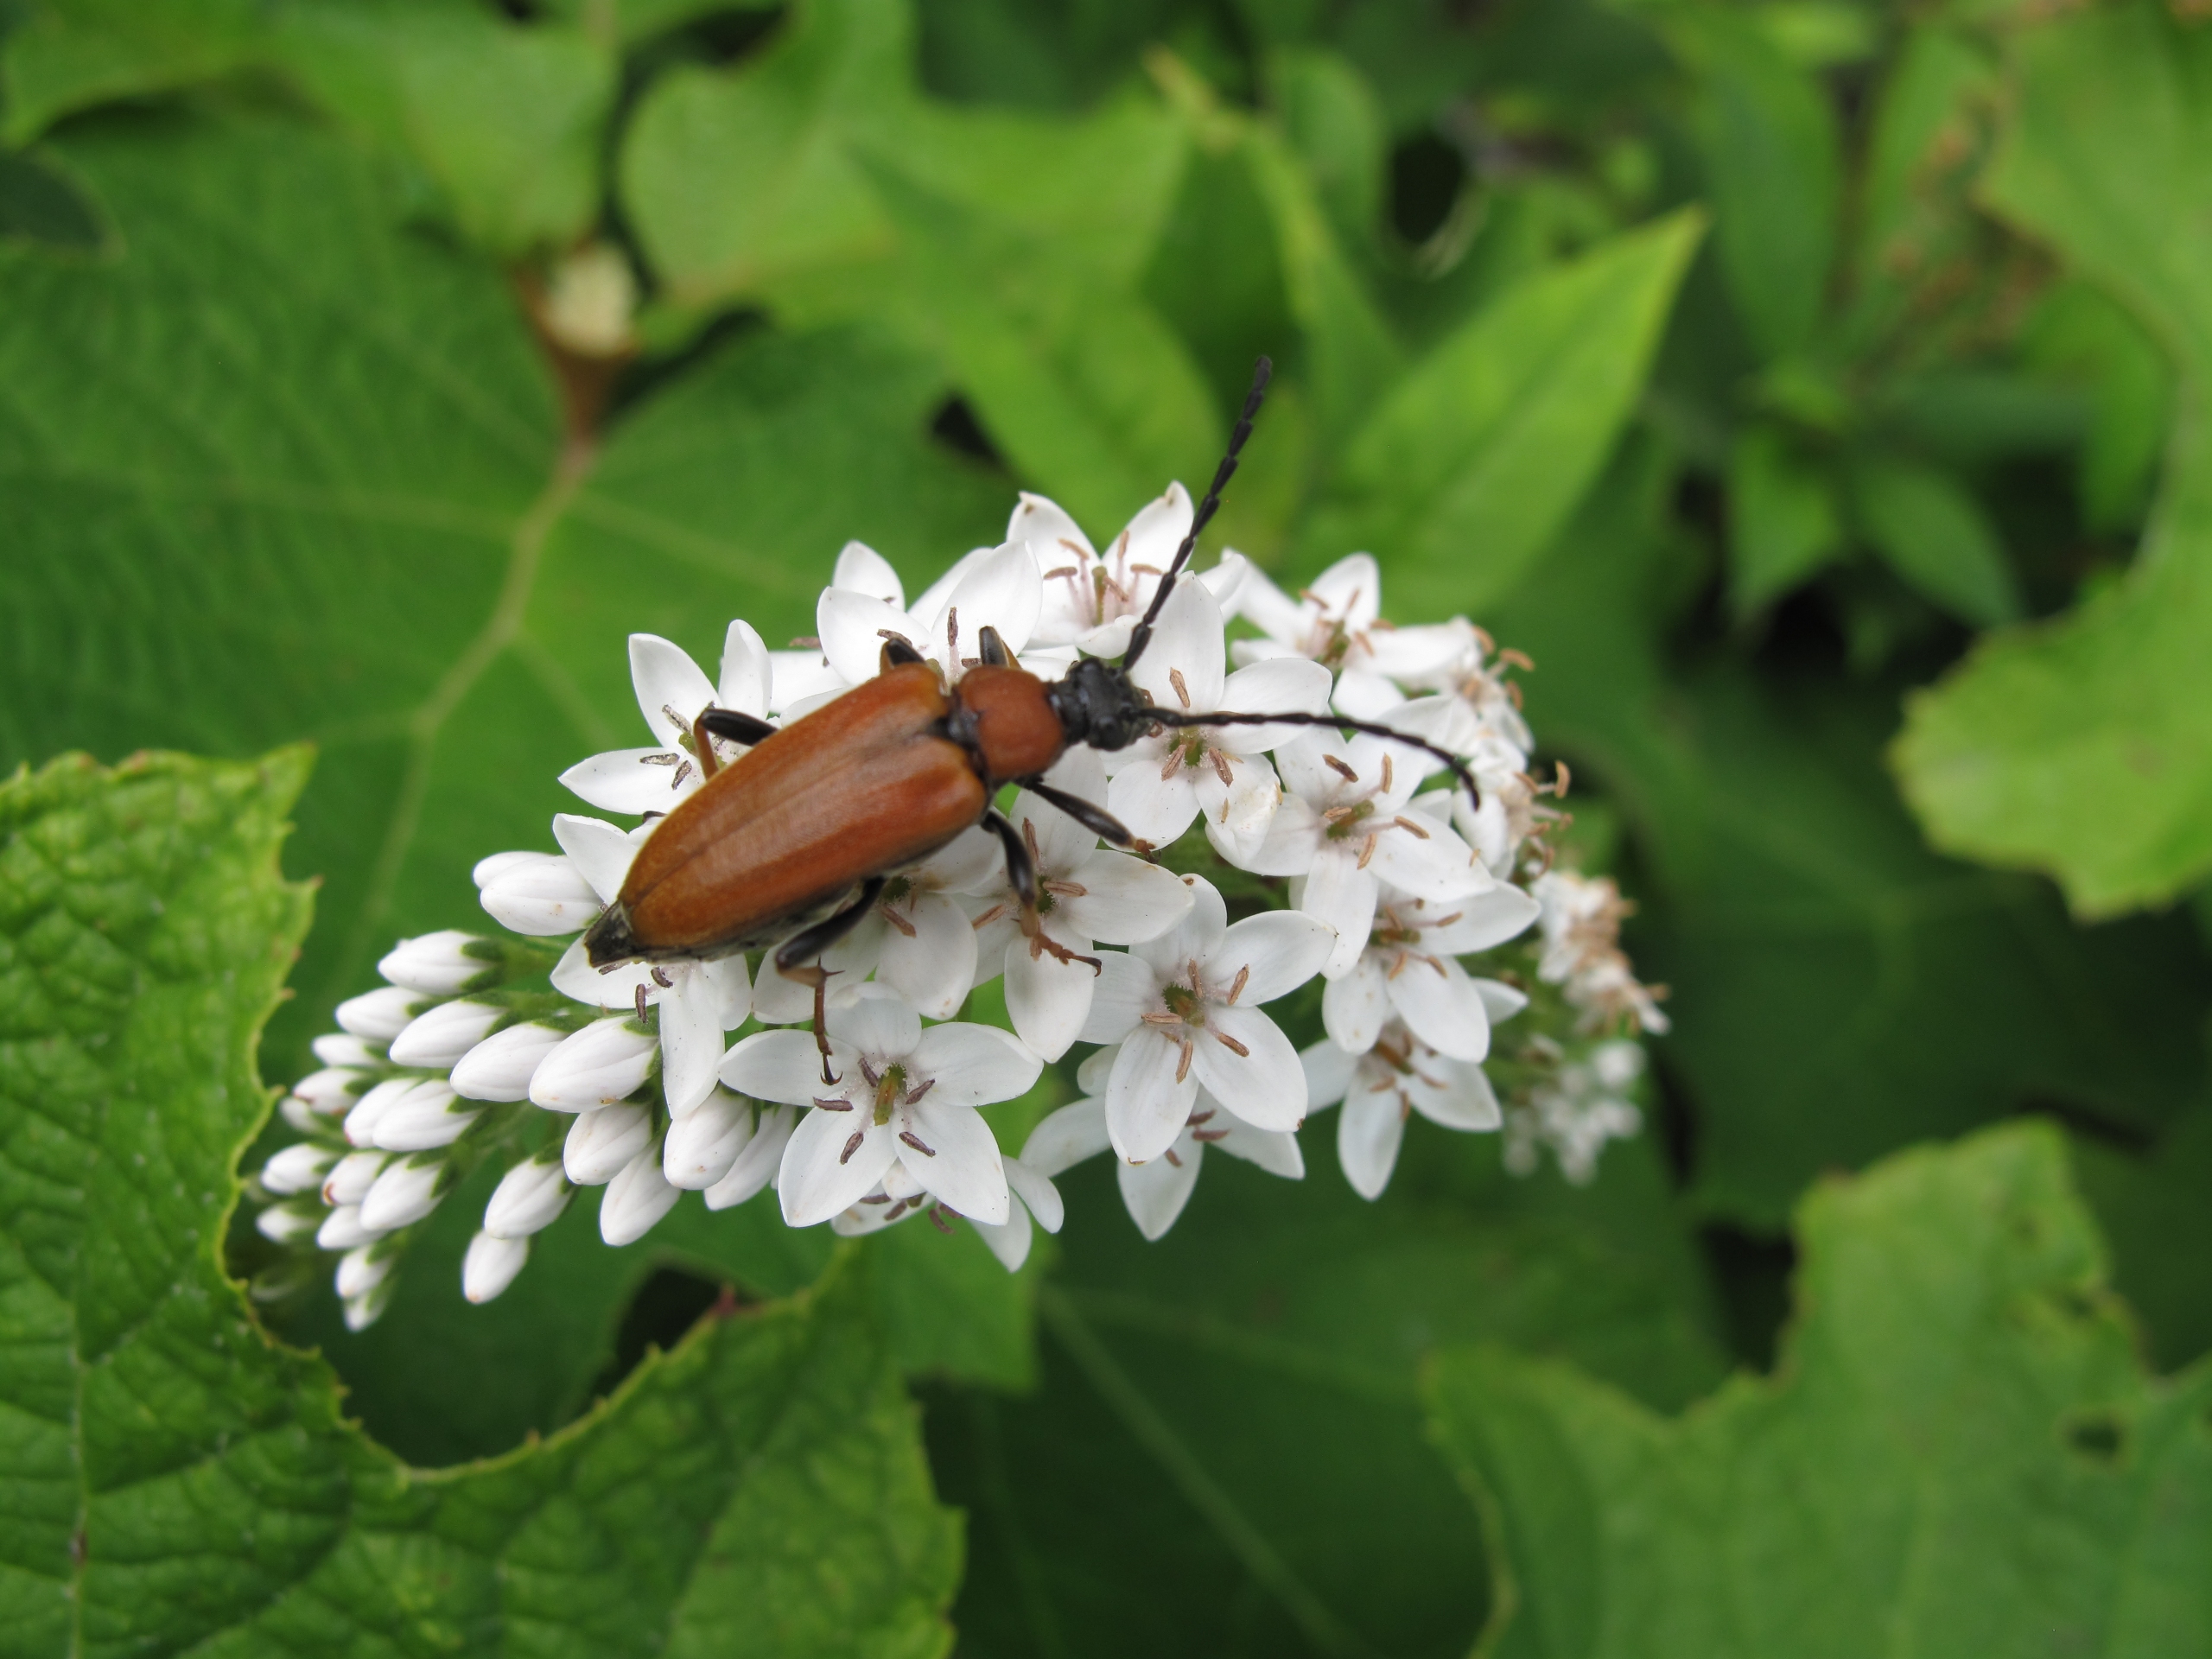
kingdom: Animalia
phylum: Arthropoda
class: Insecta
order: Coleoptera
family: Cerambycidae
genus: Stictoleptura
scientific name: Stictoleptura rubra
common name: Rød blomsterbuk
